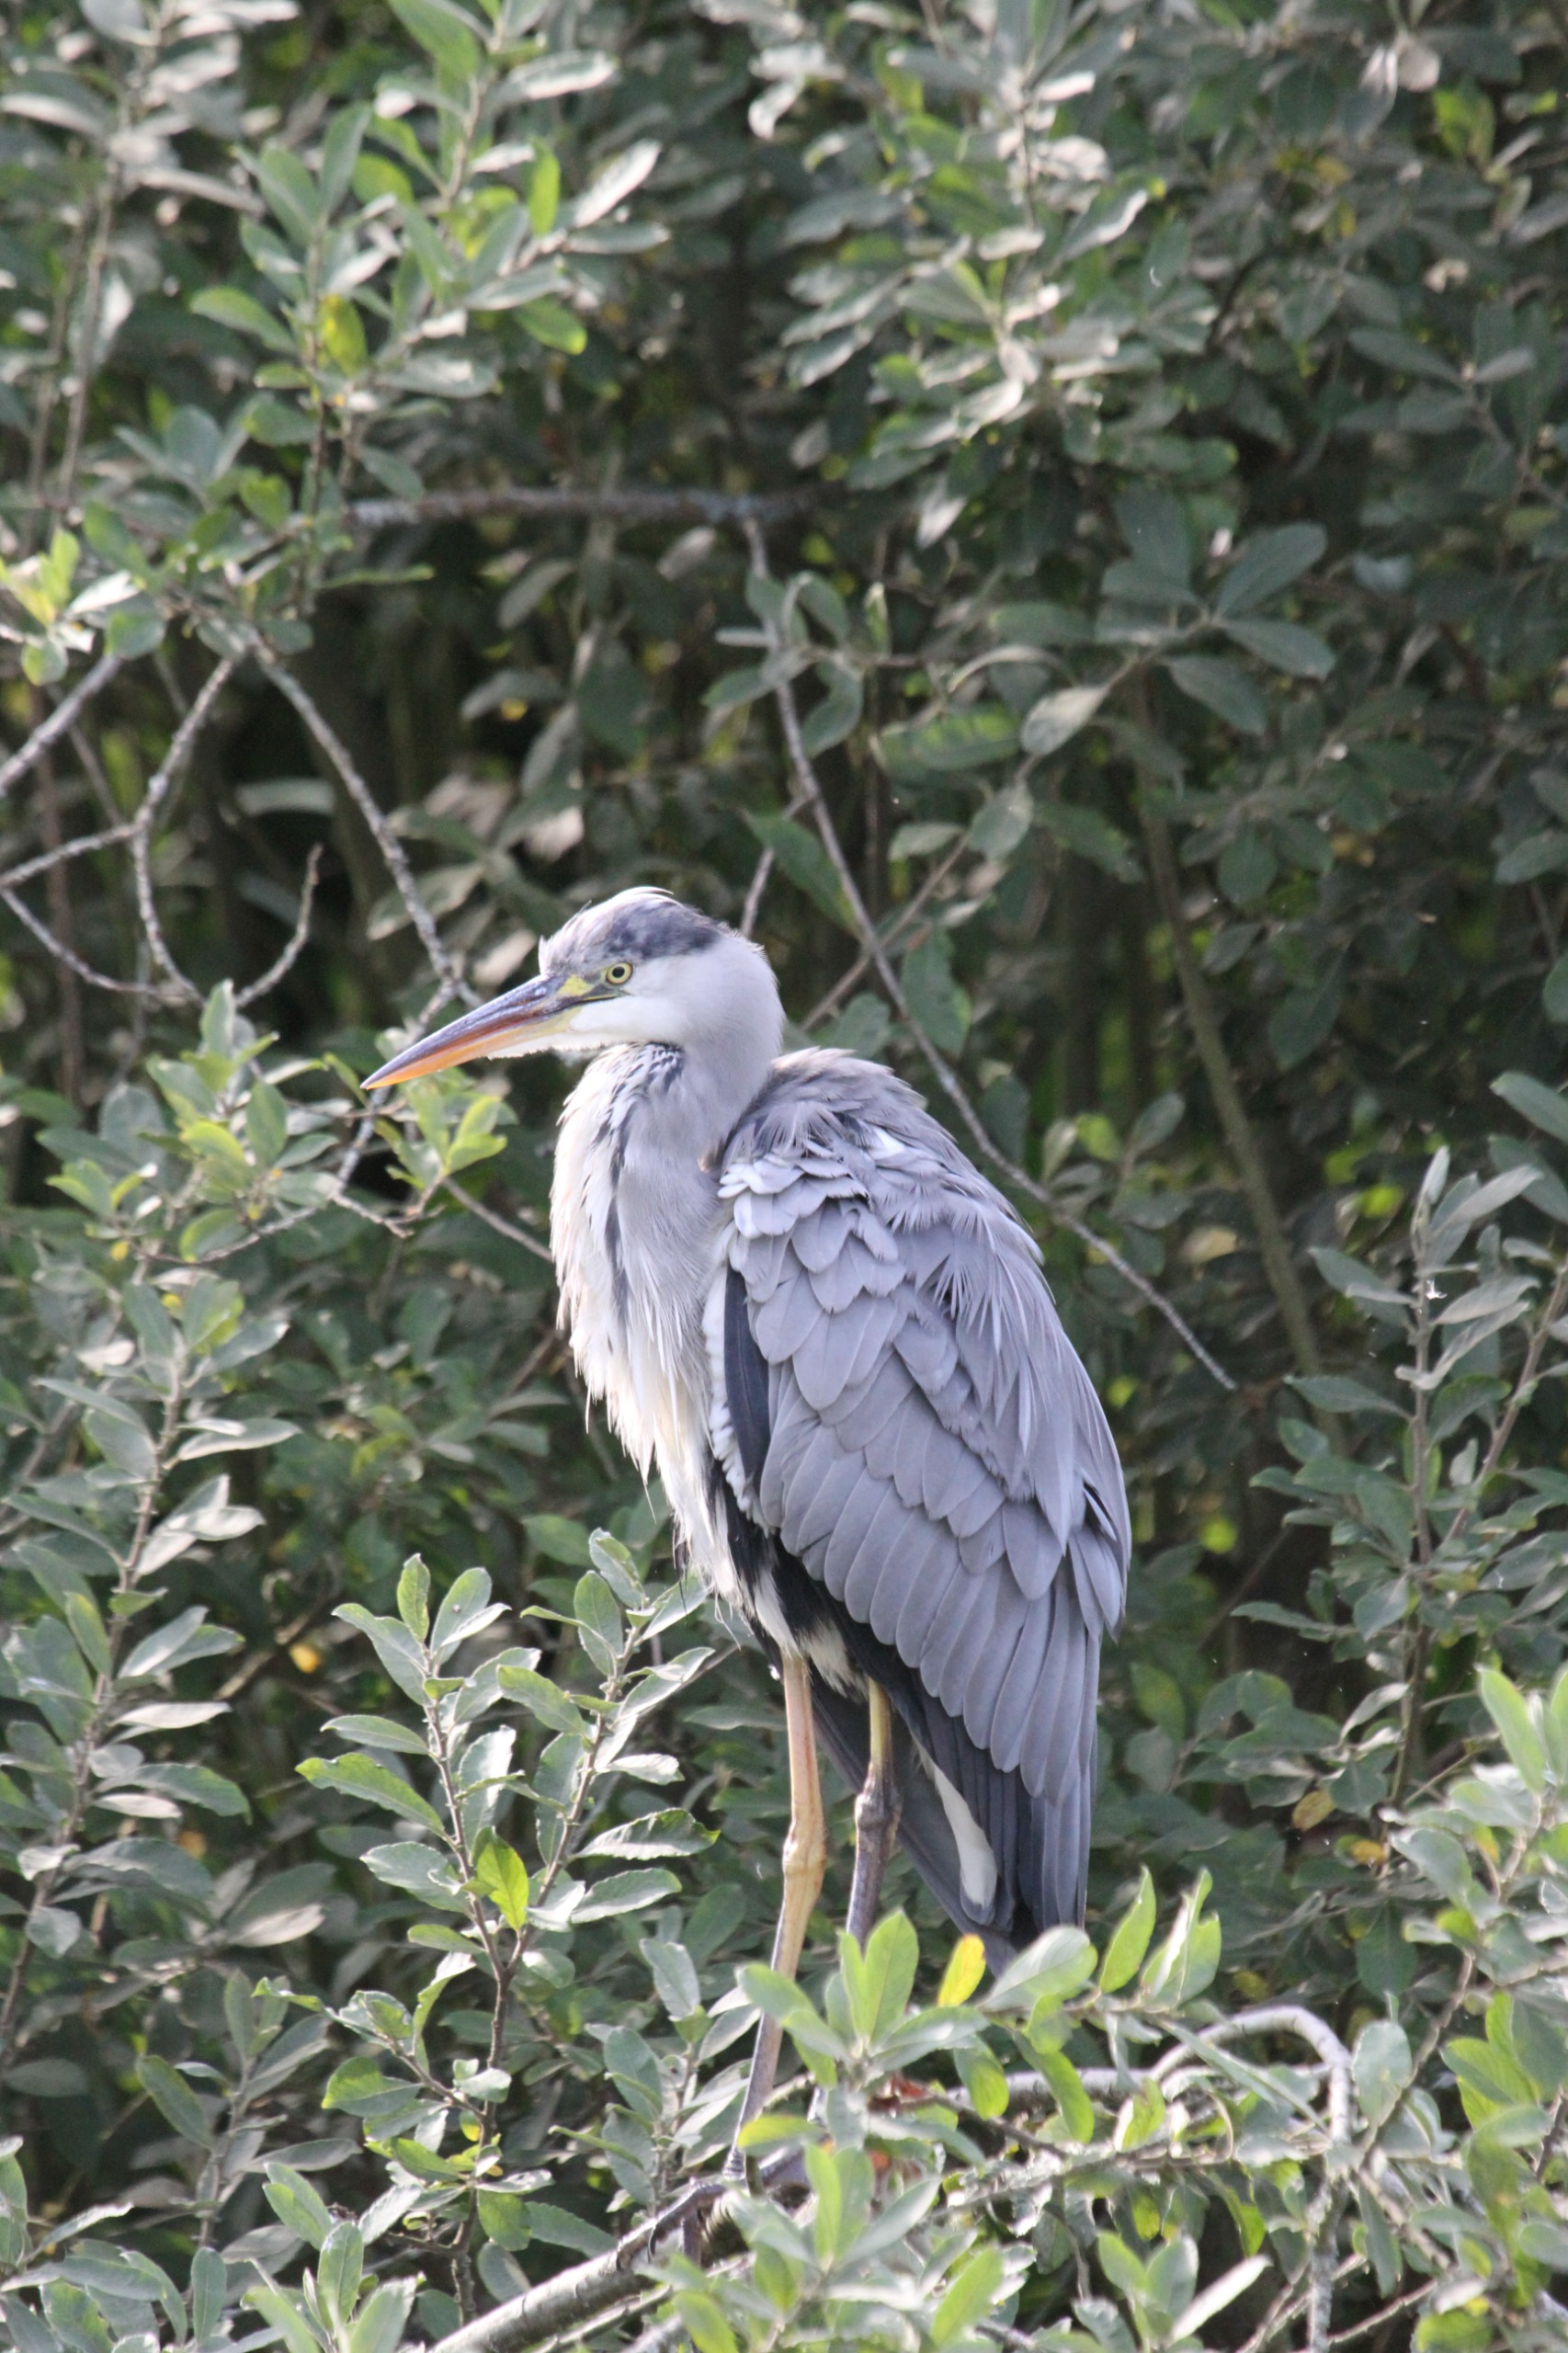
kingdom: Animalia
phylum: Chordata
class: Aves
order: Pelecaniformes
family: Ardeidae
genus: Ardea
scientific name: Ardea cinerea
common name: Fiskehejre
